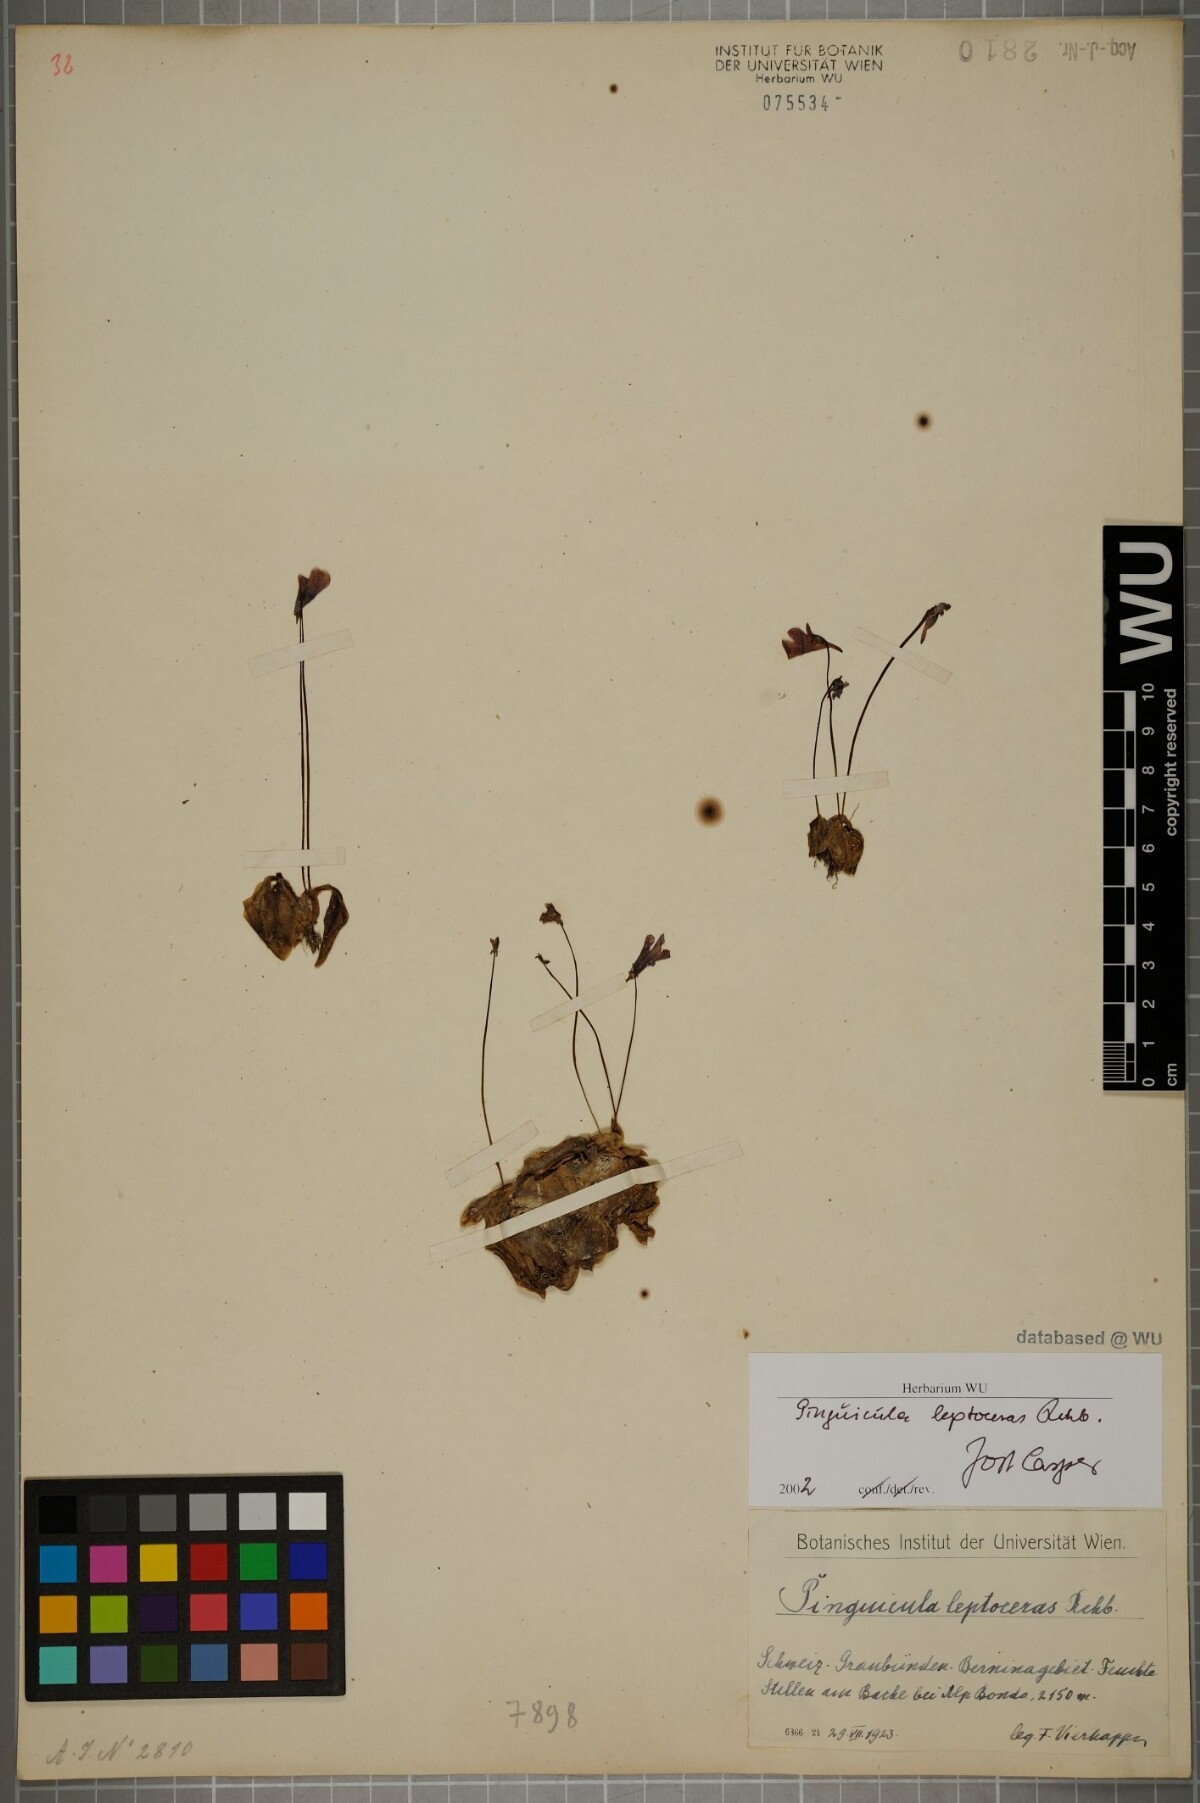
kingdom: Plantae
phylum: Tracheophyta
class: Magnoliopsida
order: Lamiales
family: Lentibulariaceae
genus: Pinguicula
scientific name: Pinguicula leptoceras
